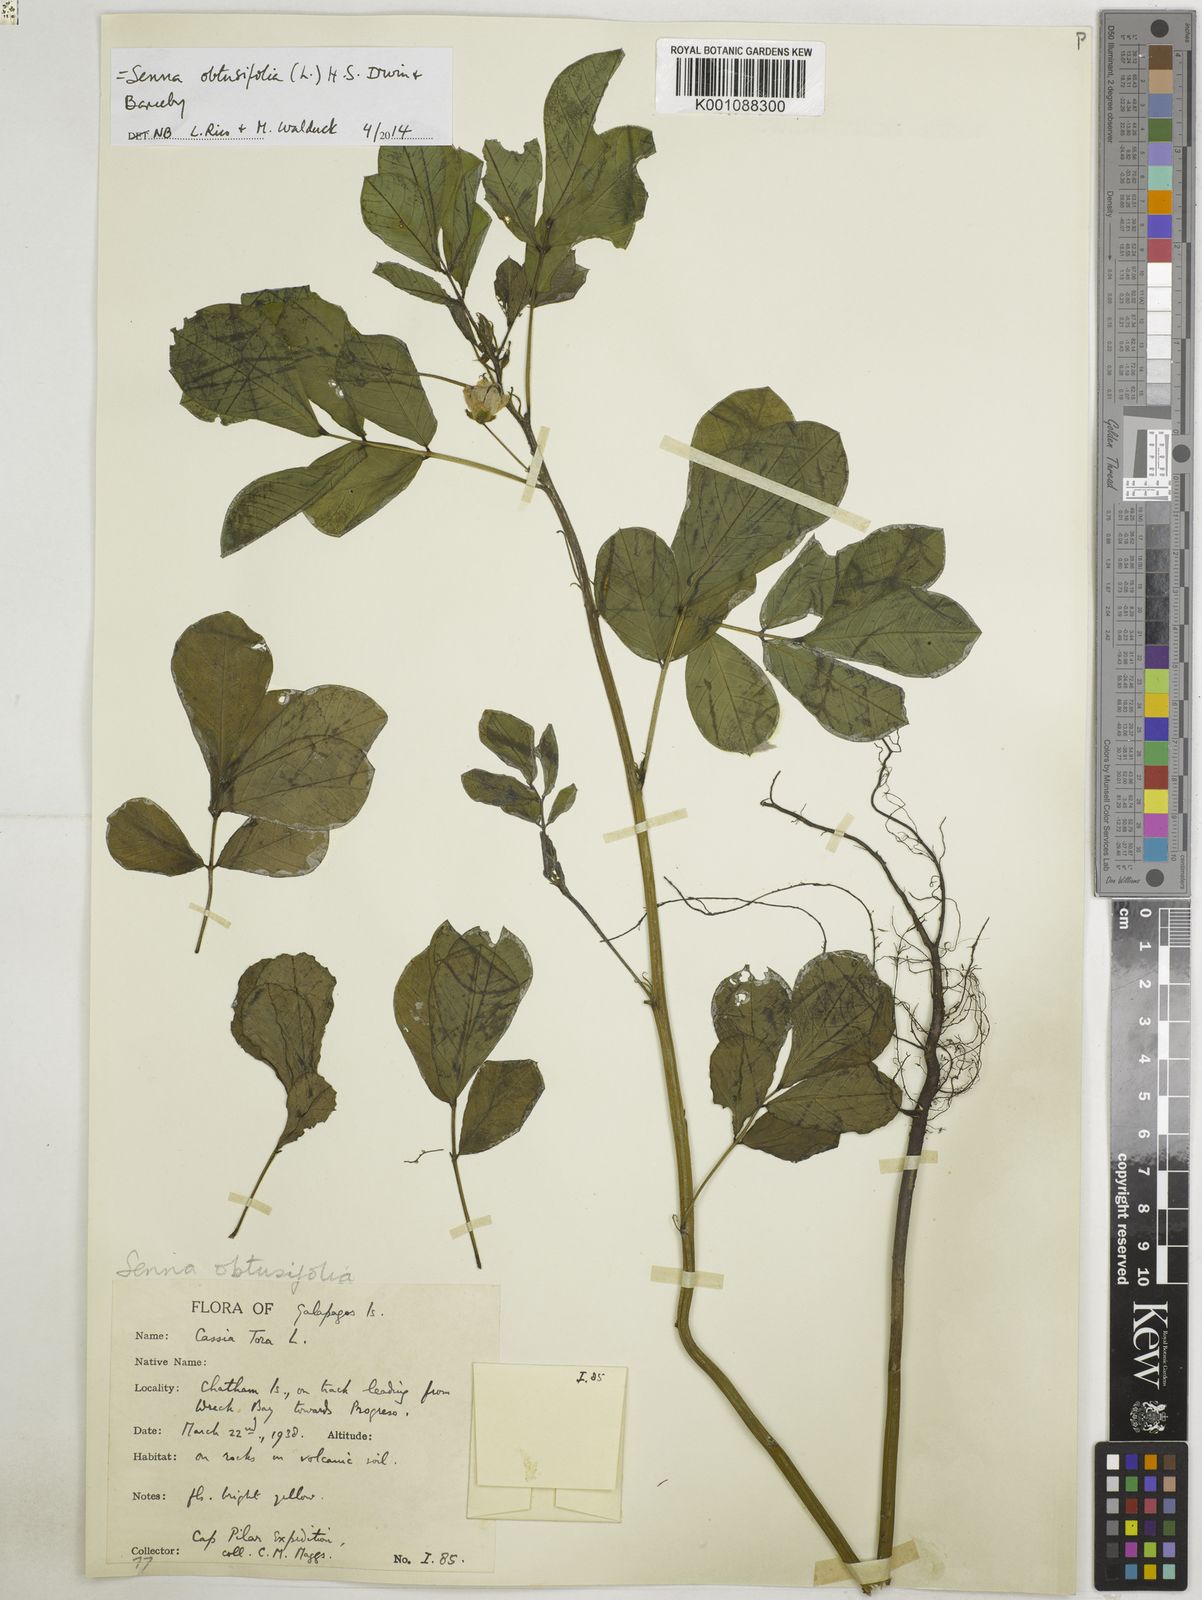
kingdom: Plantae
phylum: Tracheophyta
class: Magnoliopsida
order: Fabales
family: Fabaceae
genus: Senna
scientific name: Senna obtusifolia
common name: Java-bean
